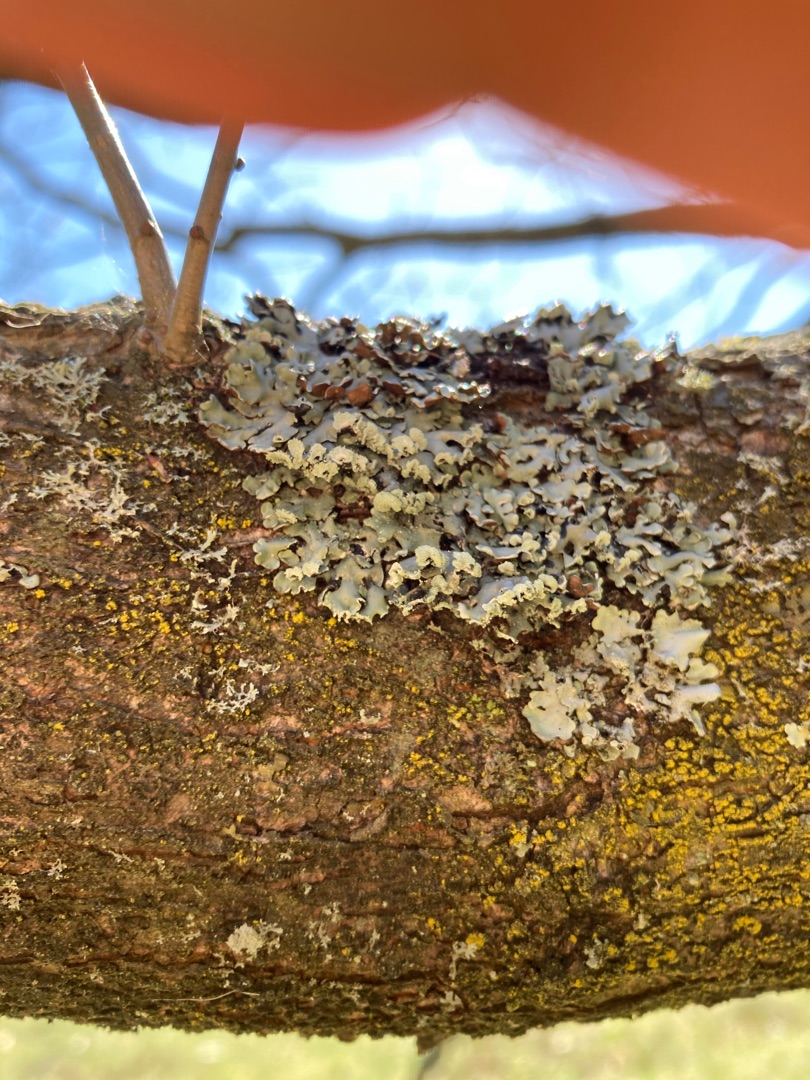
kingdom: Fungi
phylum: Ascomycota
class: Lecanoromycetes
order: Lecanorales
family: Parmeliaceae
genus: Hypogymnia
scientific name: Hypogymnia physodes
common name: Almindelig kvistlav
